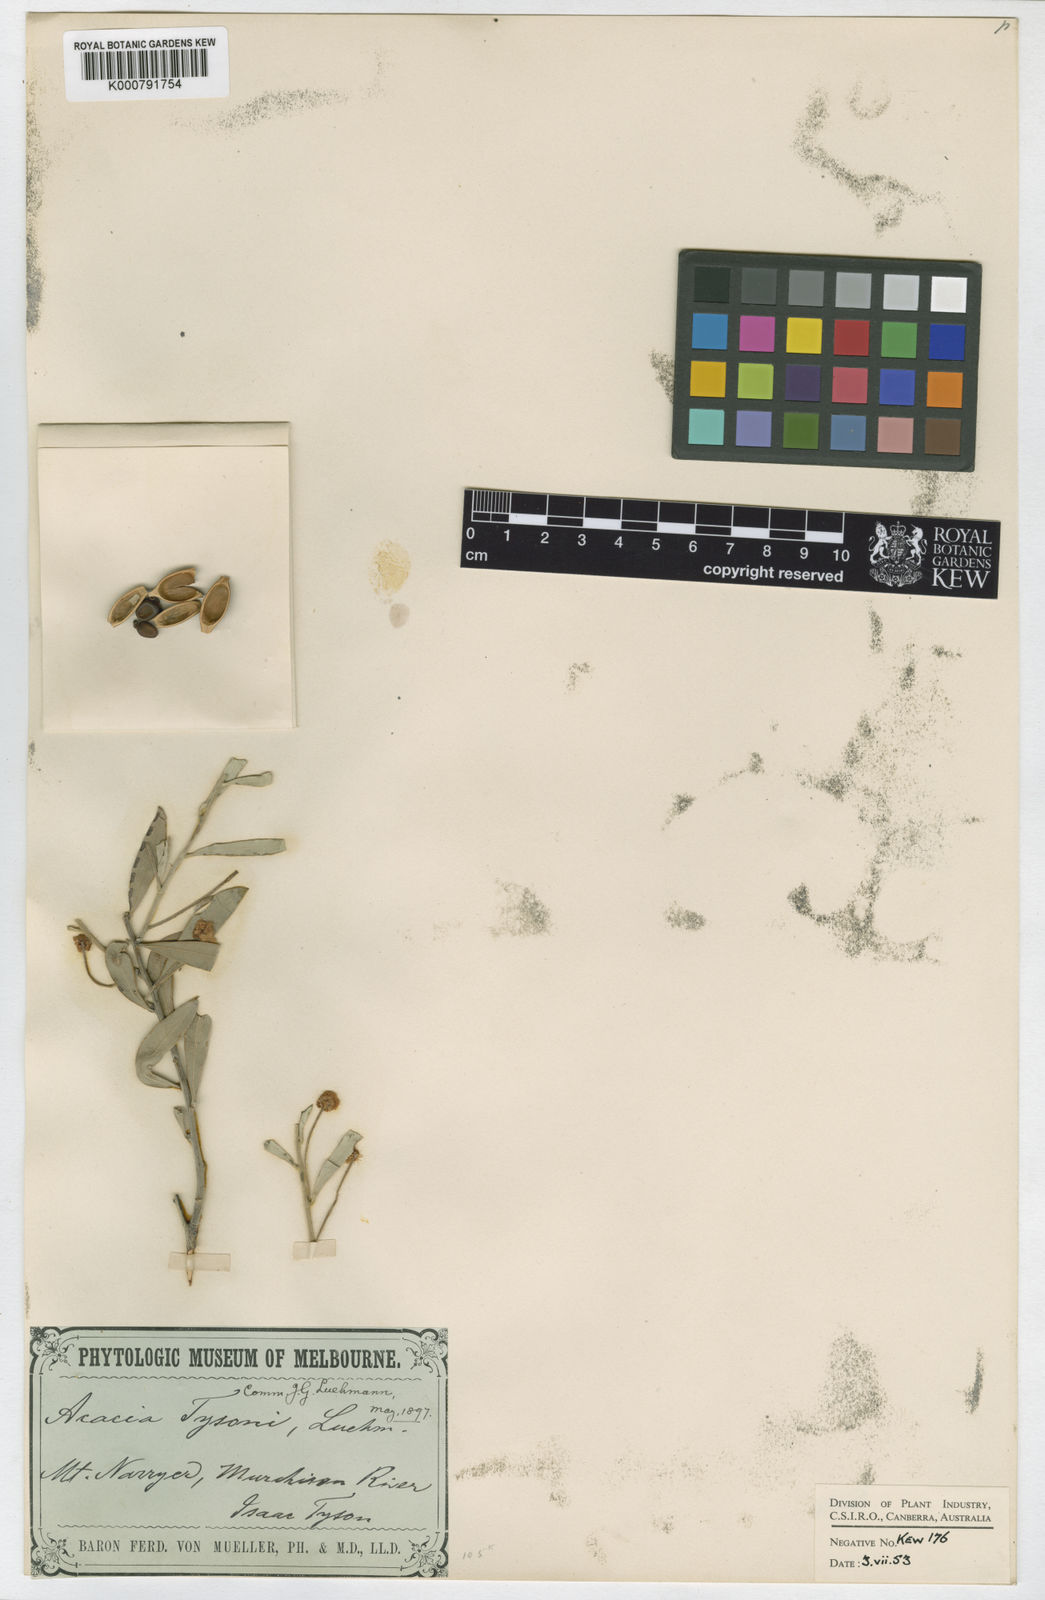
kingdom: Plantae
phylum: Tracheophyta
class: Magnoliopsida
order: Fabales
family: Fabaceae
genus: Acacia
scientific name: Acacia tysonii
